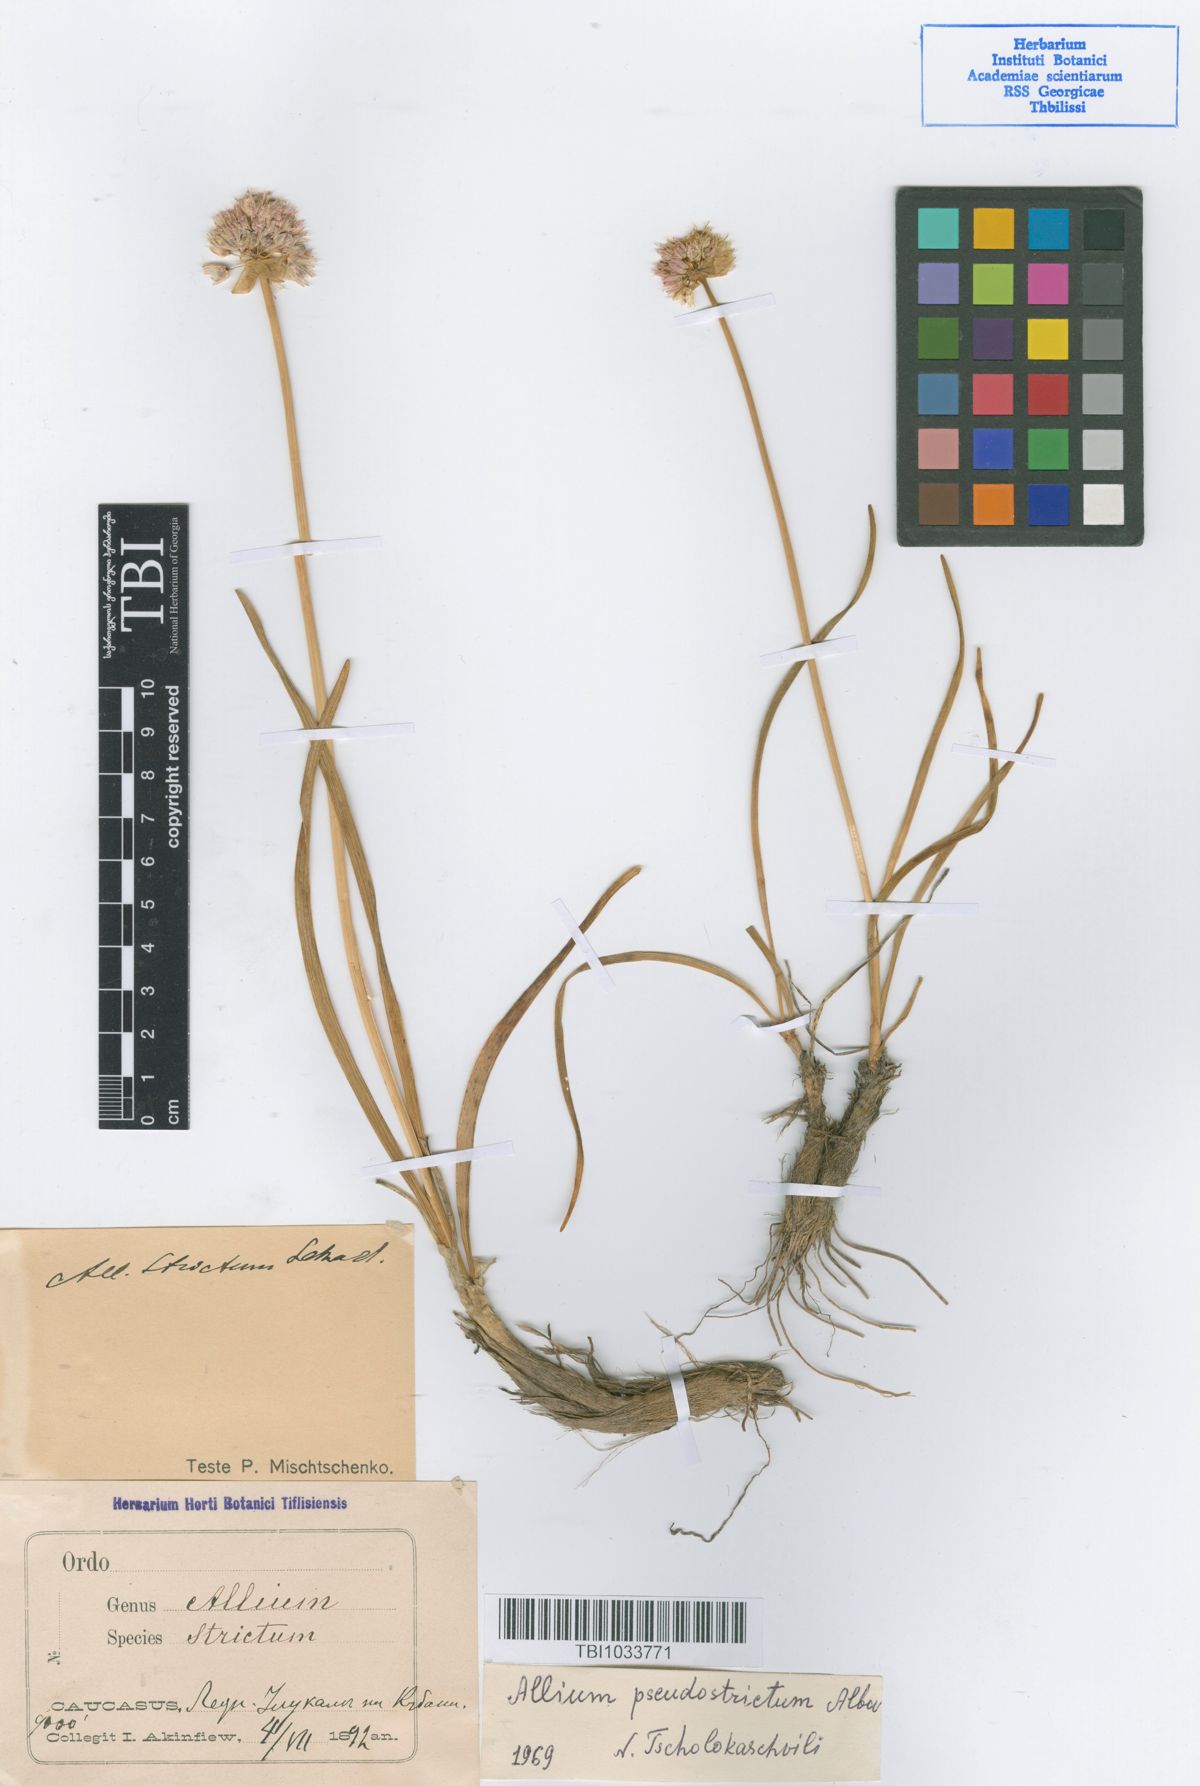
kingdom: Plantae
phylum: Tracheophyta
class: Liliopsida
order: Asparagales
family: Amaryllidaceae
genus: Allium
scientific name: Allium pseudostrictum
